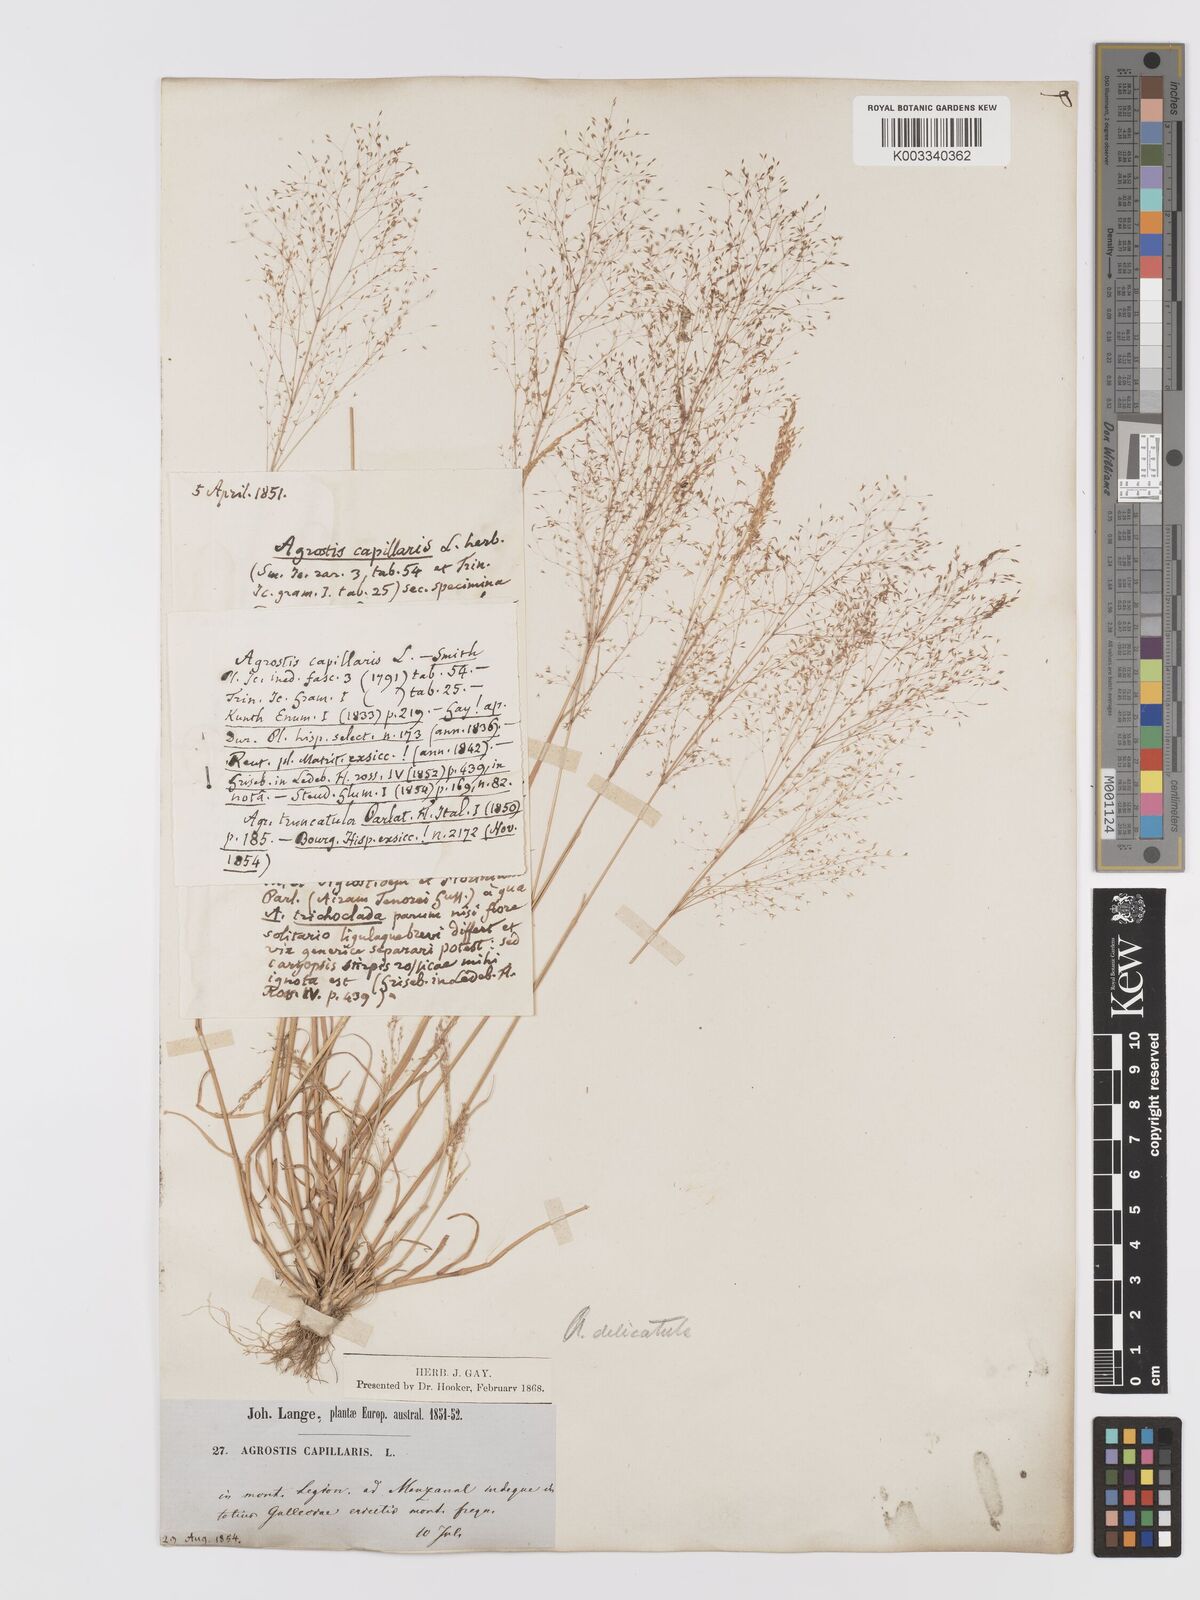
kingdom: Plantae
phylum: Tracheophyta
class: Liliopsida
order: Poales
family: Poaceae
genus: Agrostis
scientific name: Agrostis castellana
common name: Highland bent
